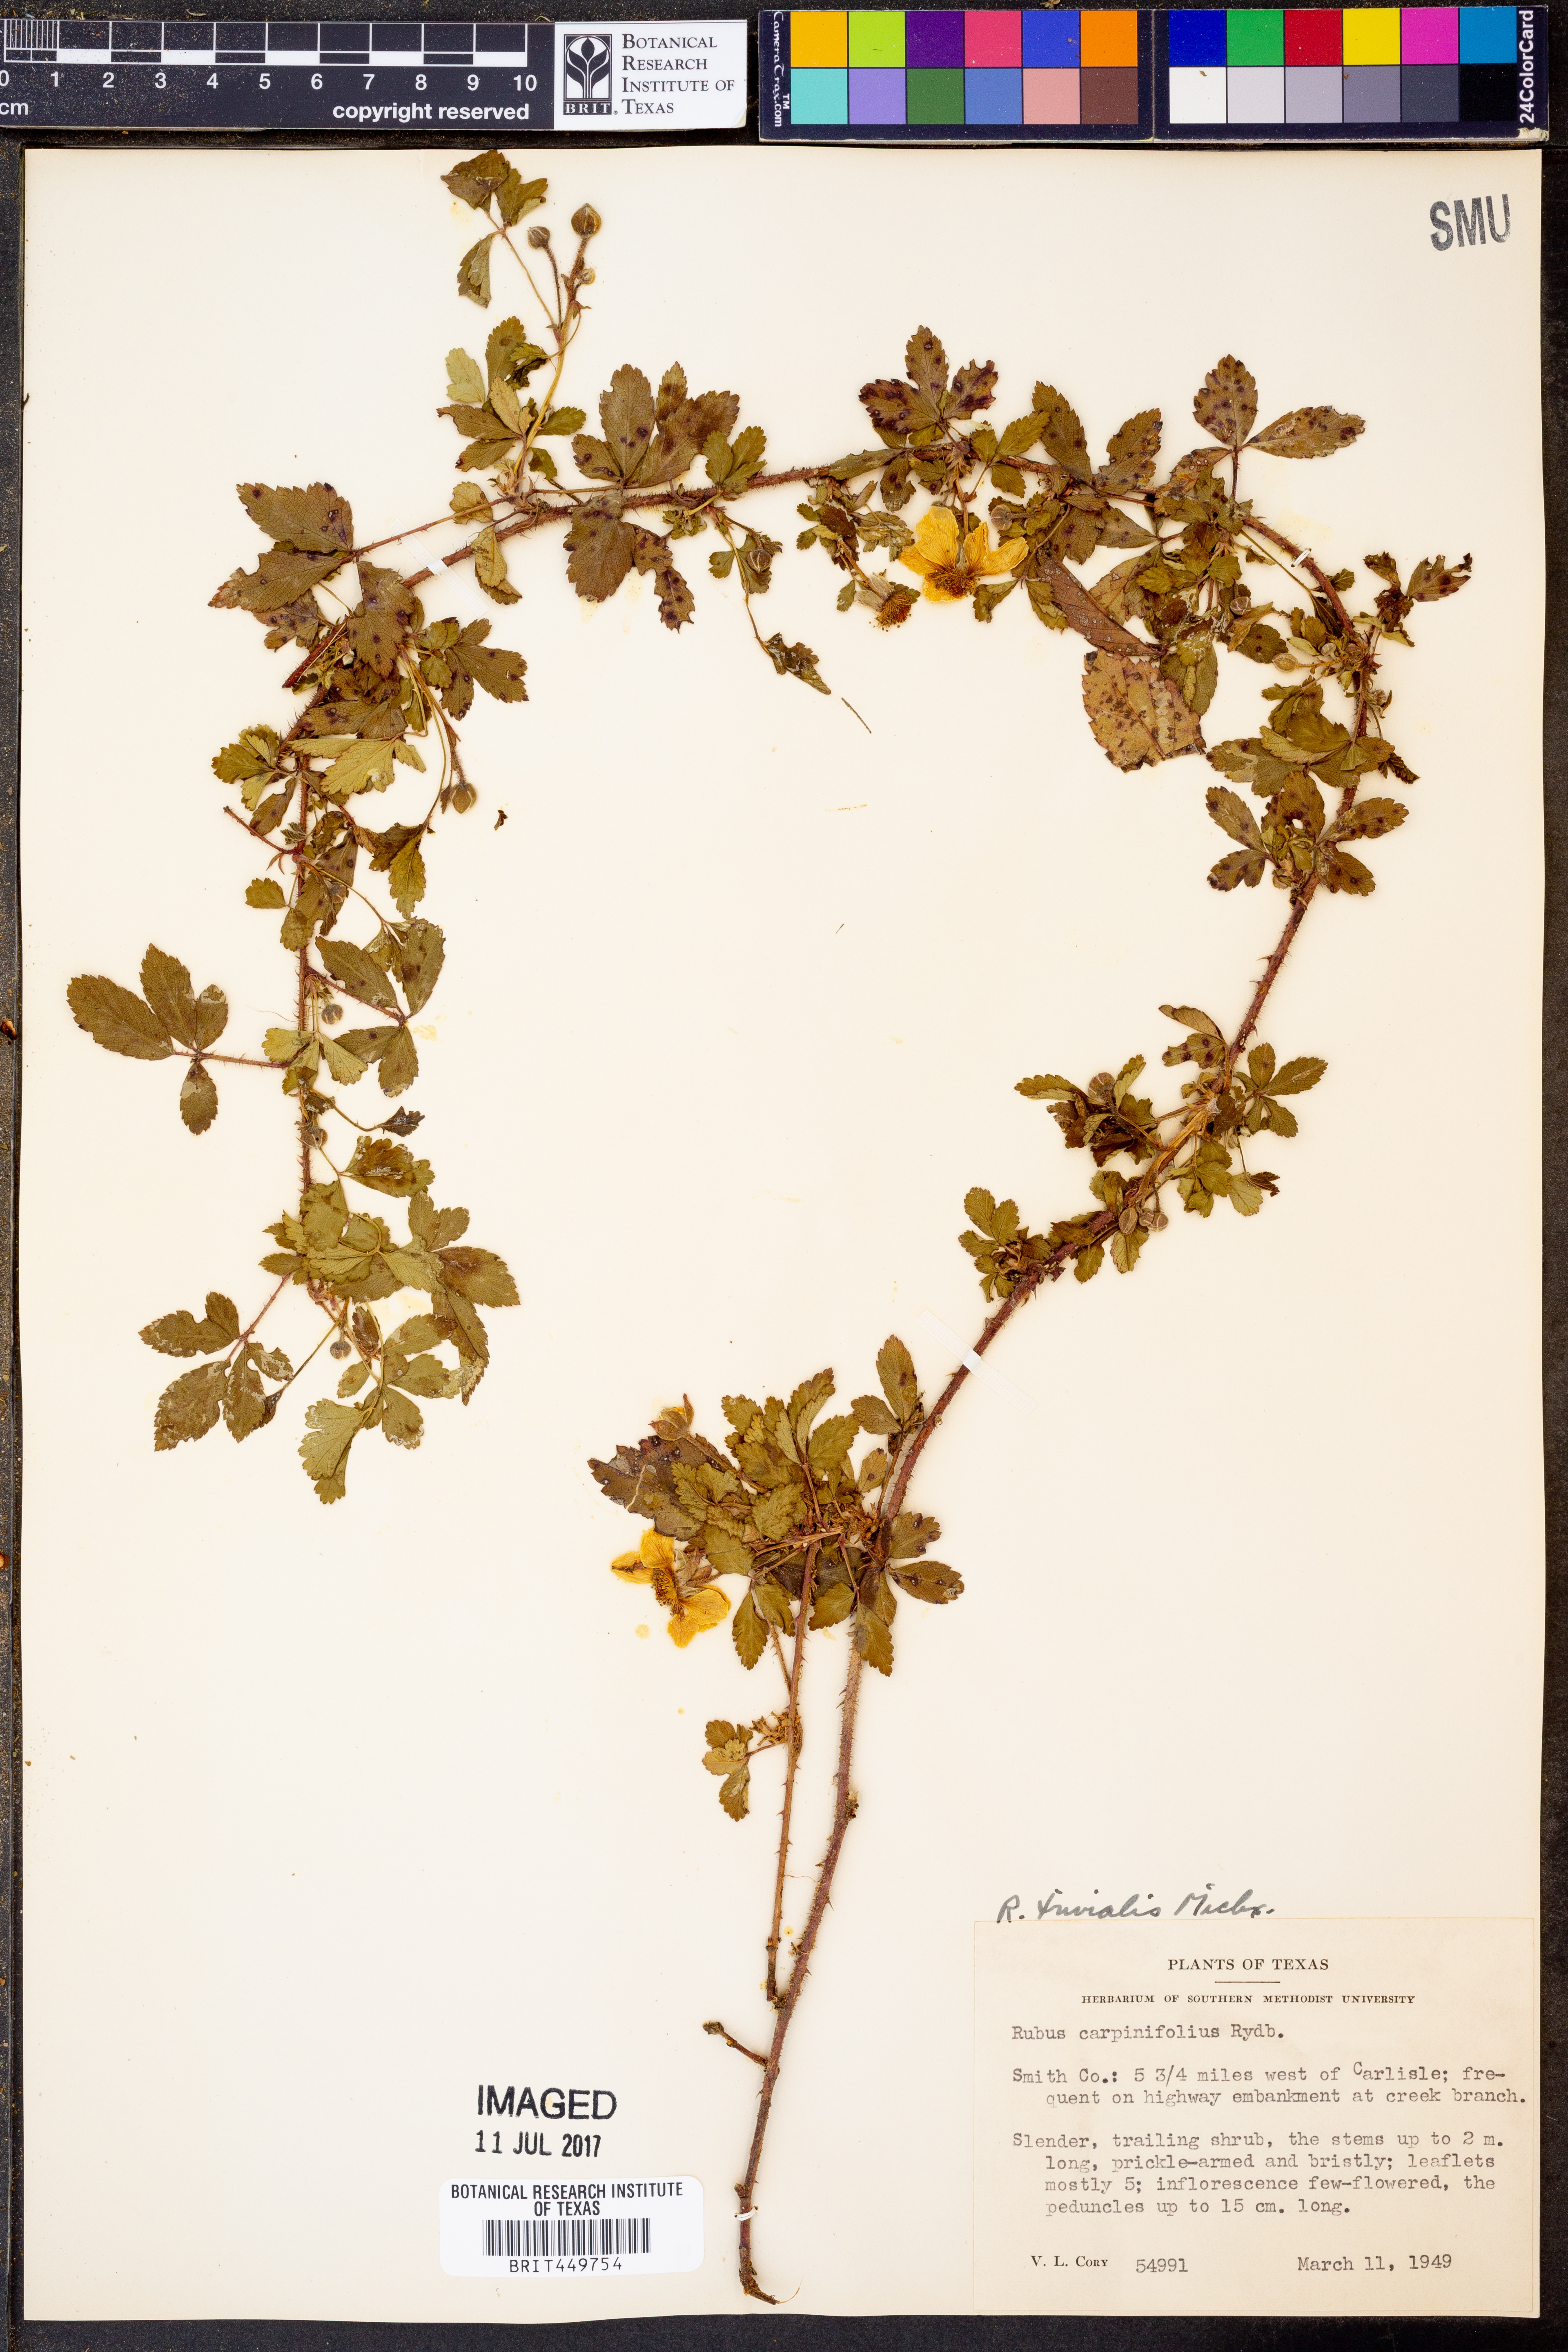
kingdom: Plantae
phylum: Tracheophyta
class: Magnoliopsida
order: Rosales
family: Rosaceae
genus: Rubus
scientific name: Rubus trivialis
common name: Southern dewberry
